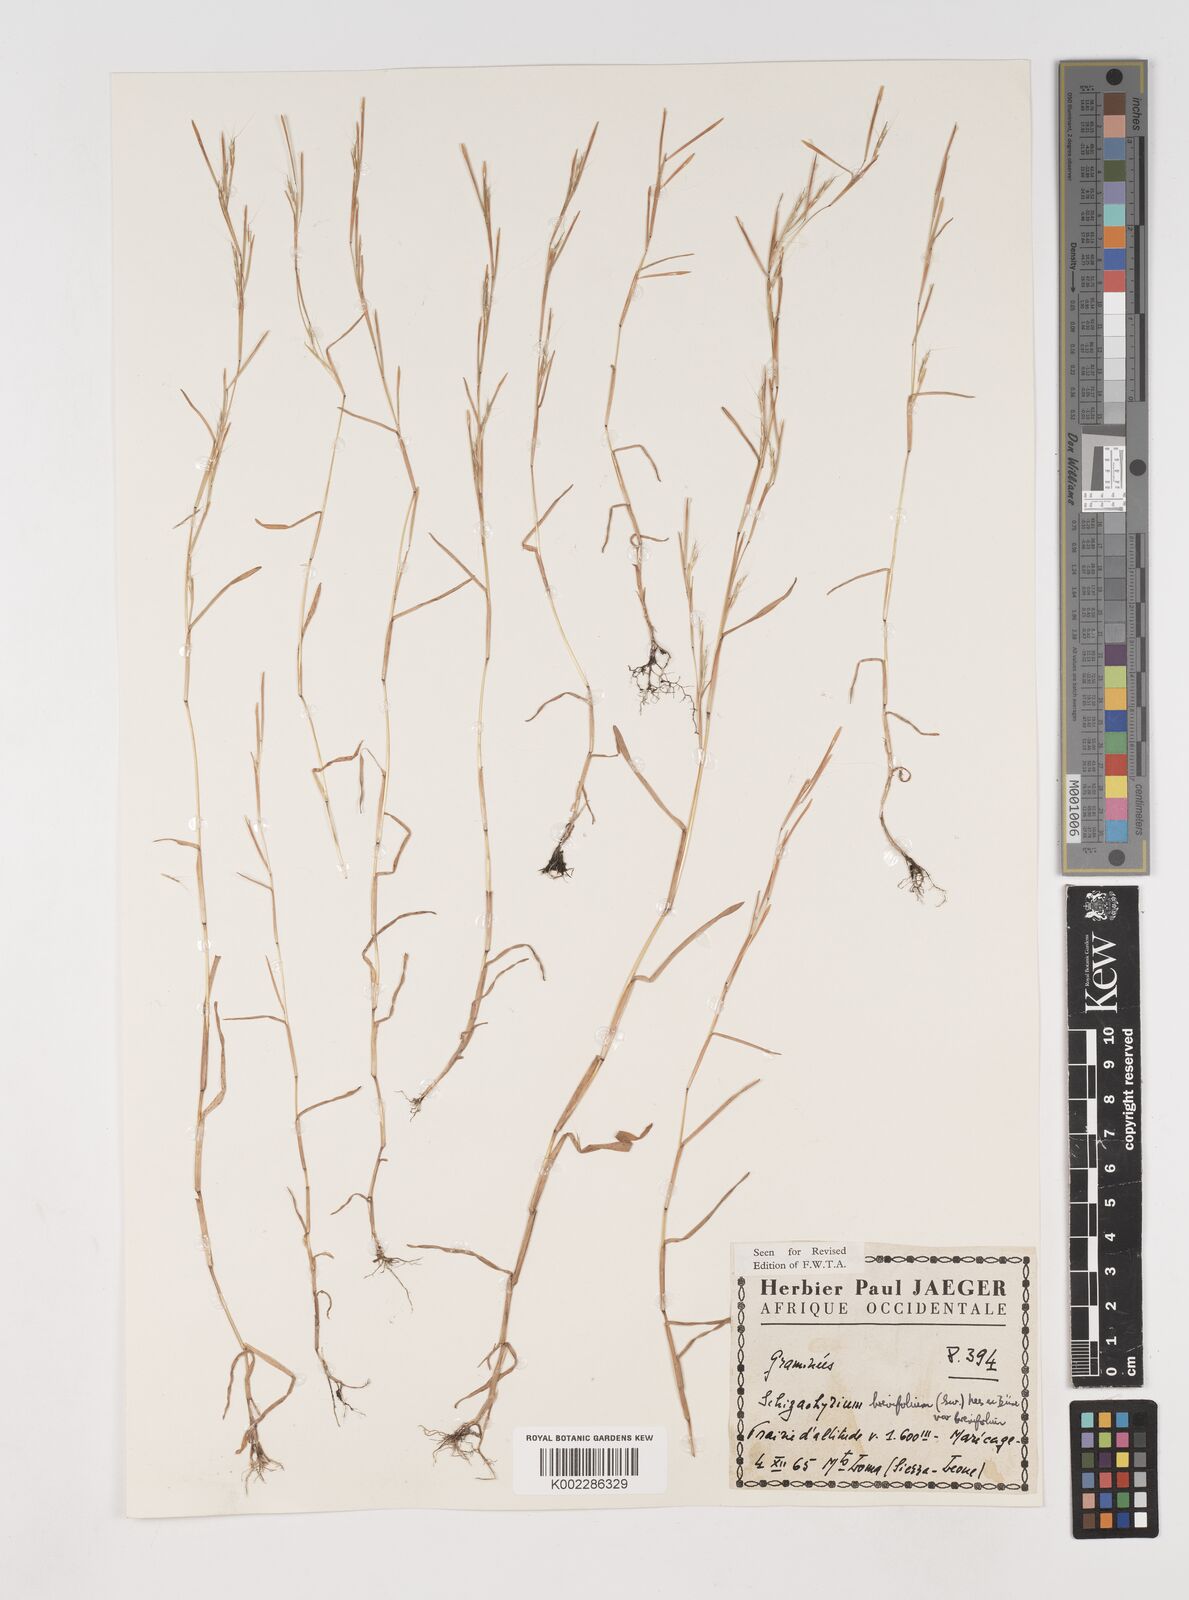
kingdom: Plantae
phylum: Tracheophyta
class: Liliopsida
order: Poales
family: Poaceae
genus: Schizachyrium
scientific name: Schizachyrium brevifolium
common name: Serillo dulce
